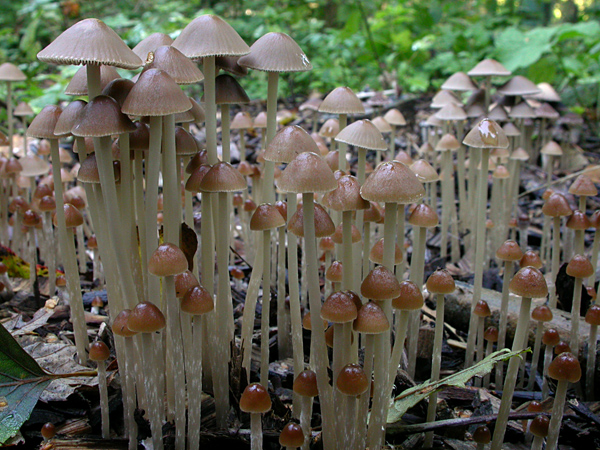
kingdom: Fungi
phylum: Basidiomycota
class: Agaricomycetes
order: Agaricales
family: Psathyrellaceae
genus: Psathyrella
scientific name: Psathyrella pseudogracilis
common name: slank mørkhat
